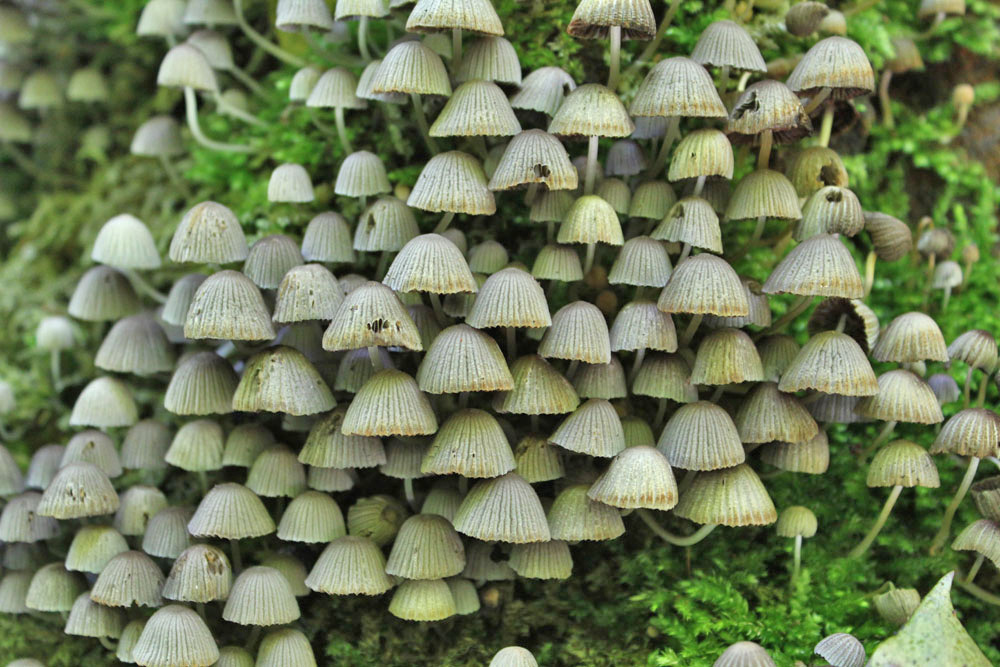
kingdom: Fungi
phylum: Basidiomycota
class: Agaricomycetes
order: Agaricales
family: Psathyrellaceae
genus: Coprinellus
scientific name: Coprinellus disseminatus
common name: bredsået blækhat
